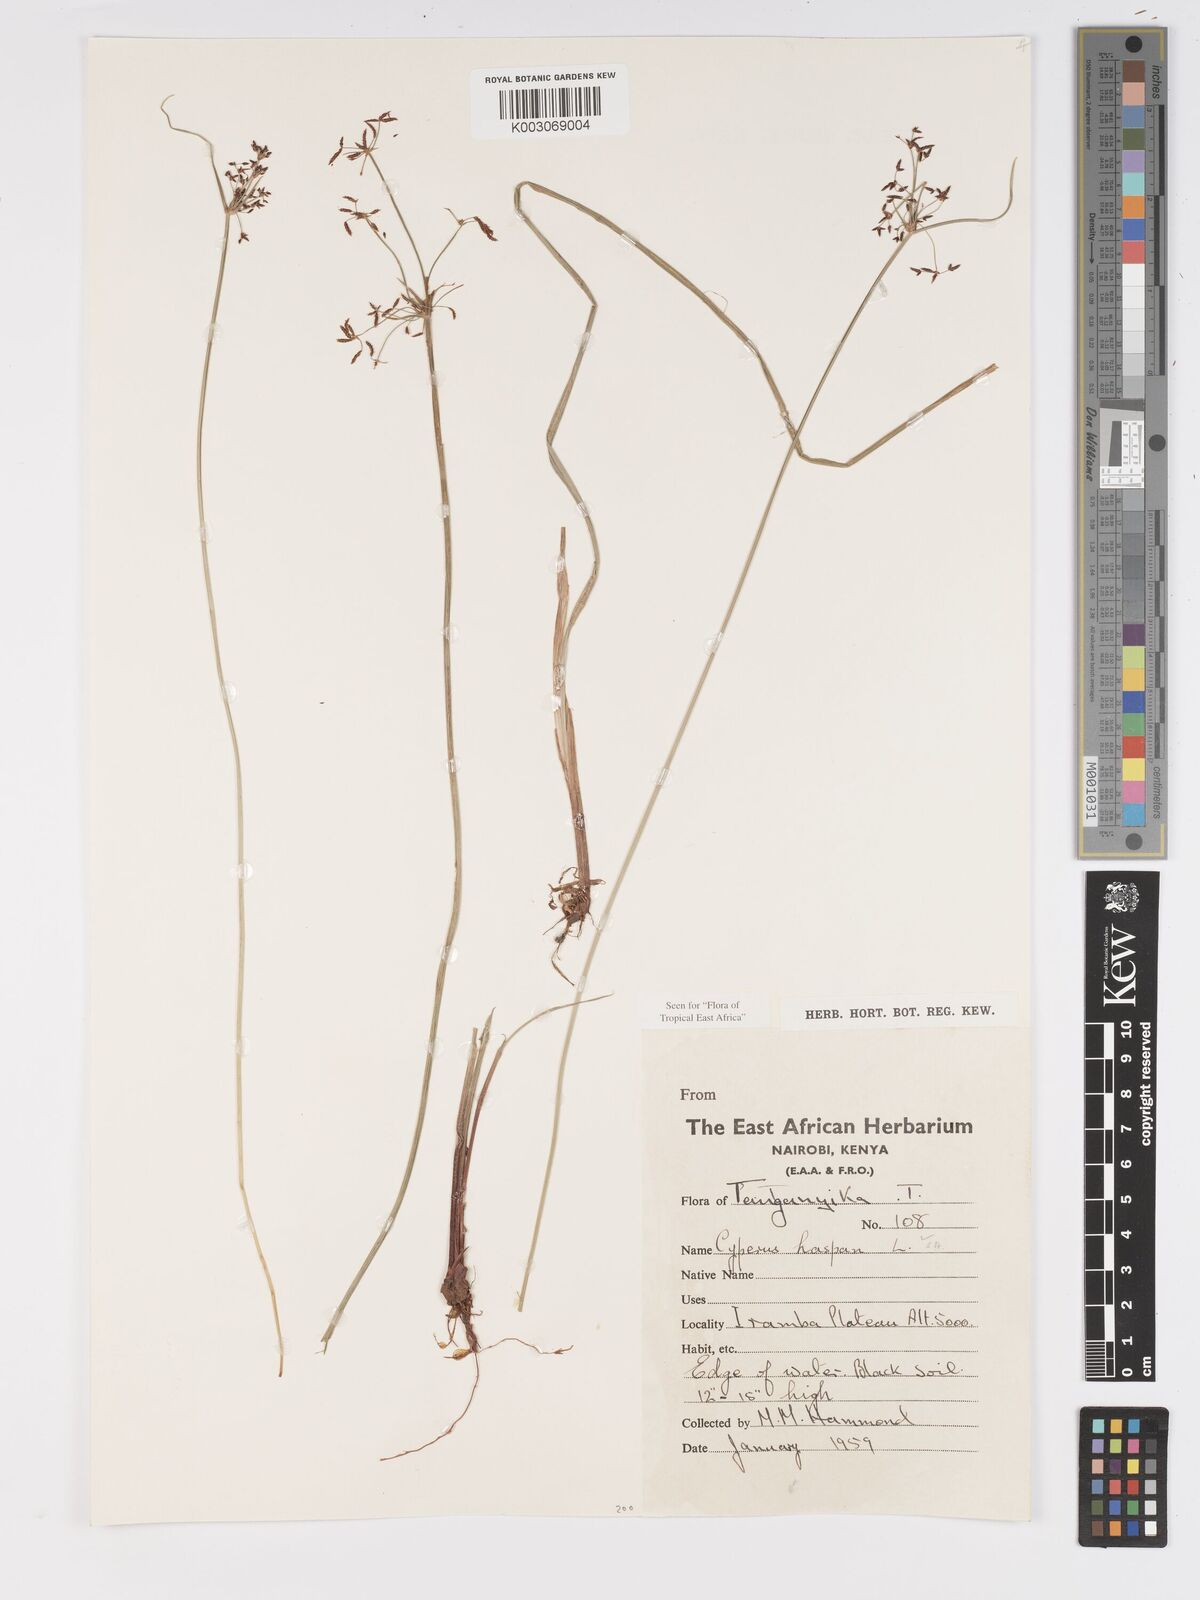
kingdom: Plantae
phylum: Tracheophyta
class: Liliopsida
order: Poales
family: Cyperaceae
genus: Cyperus
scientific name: Cyperus platycaulis
